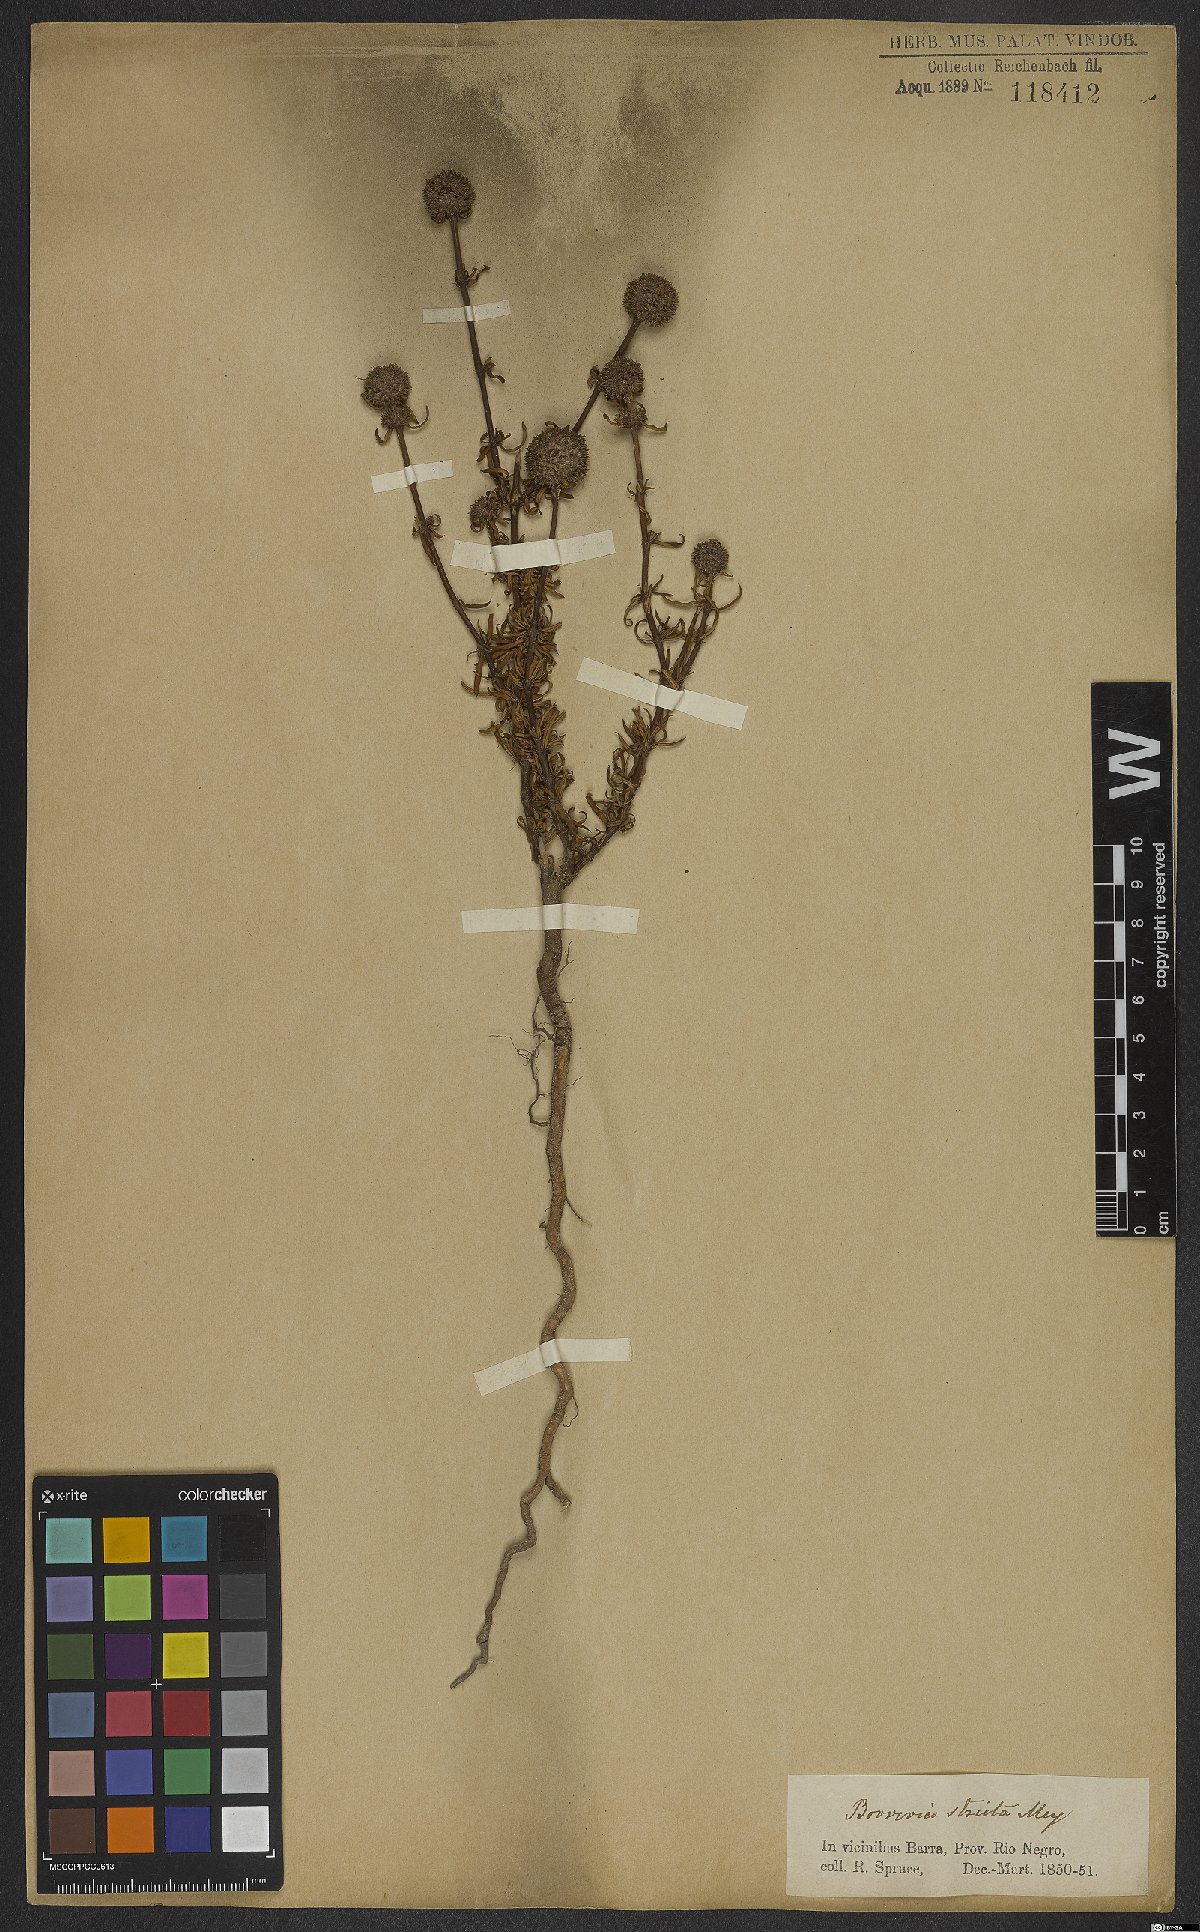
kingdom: Plantae
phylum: Tracheophyta
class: Magnoliopsida
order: Gentianales
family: Rubiaceae
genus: Spermacoce
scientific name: Spermacoce ocymoides
